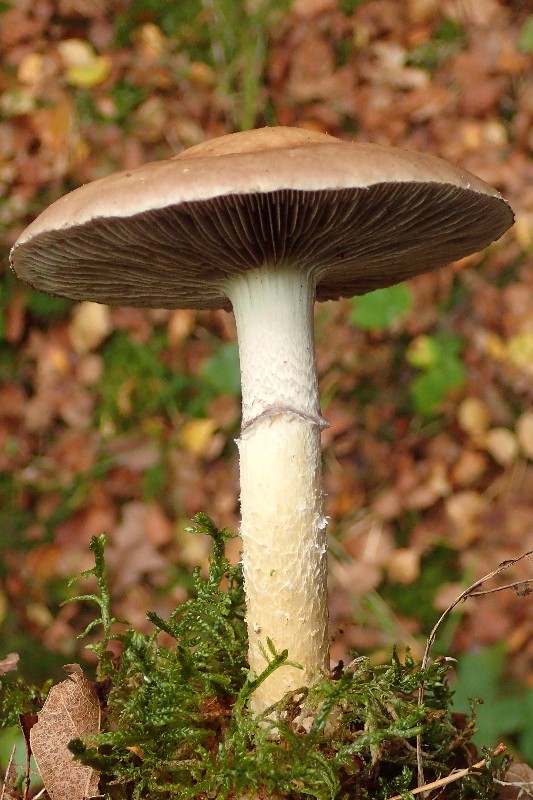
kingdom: Fungi
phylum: Basidiomycota
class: Agaricomycetes
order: Agaricales
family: Strophariaceae
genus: Stropharia
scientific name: Stropharia hornemannii
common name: nordisk bredblad
